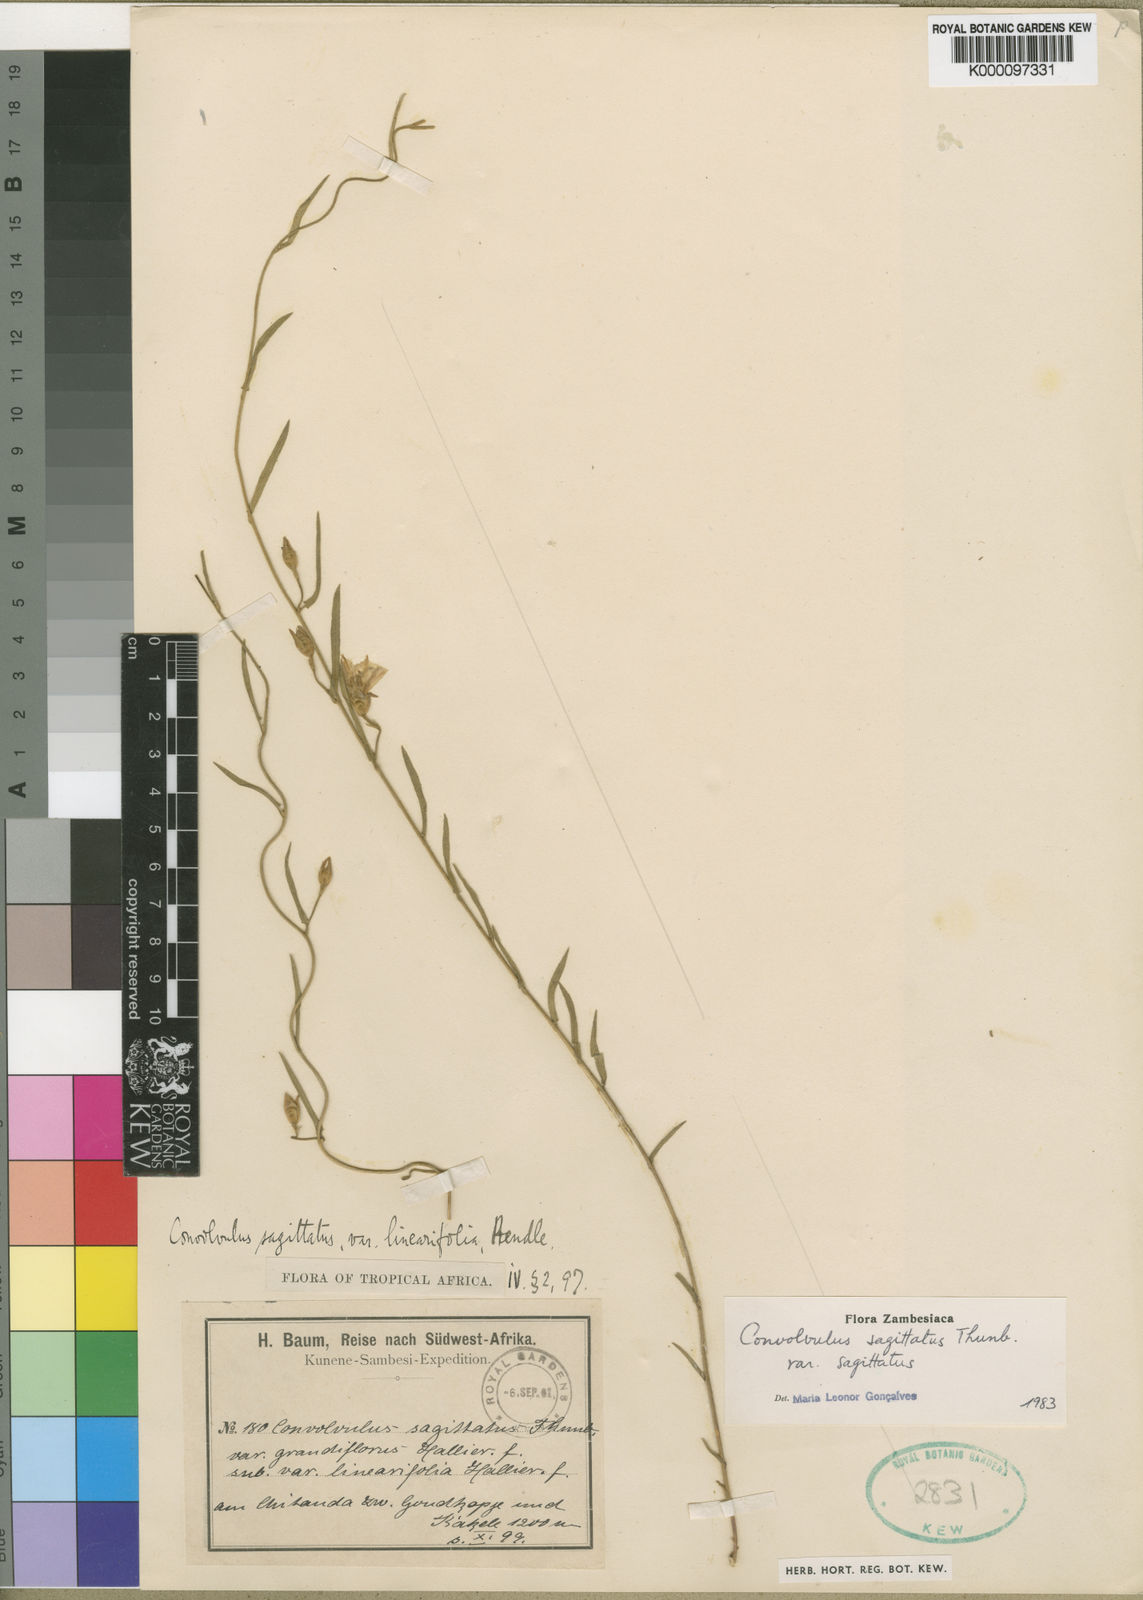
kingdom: Plantae
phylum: Tracheophyta
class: Magnoliopsida
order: Solanales
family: Convolvulaceae
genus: Convolvulus
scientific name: Convolvulus sagittatus
